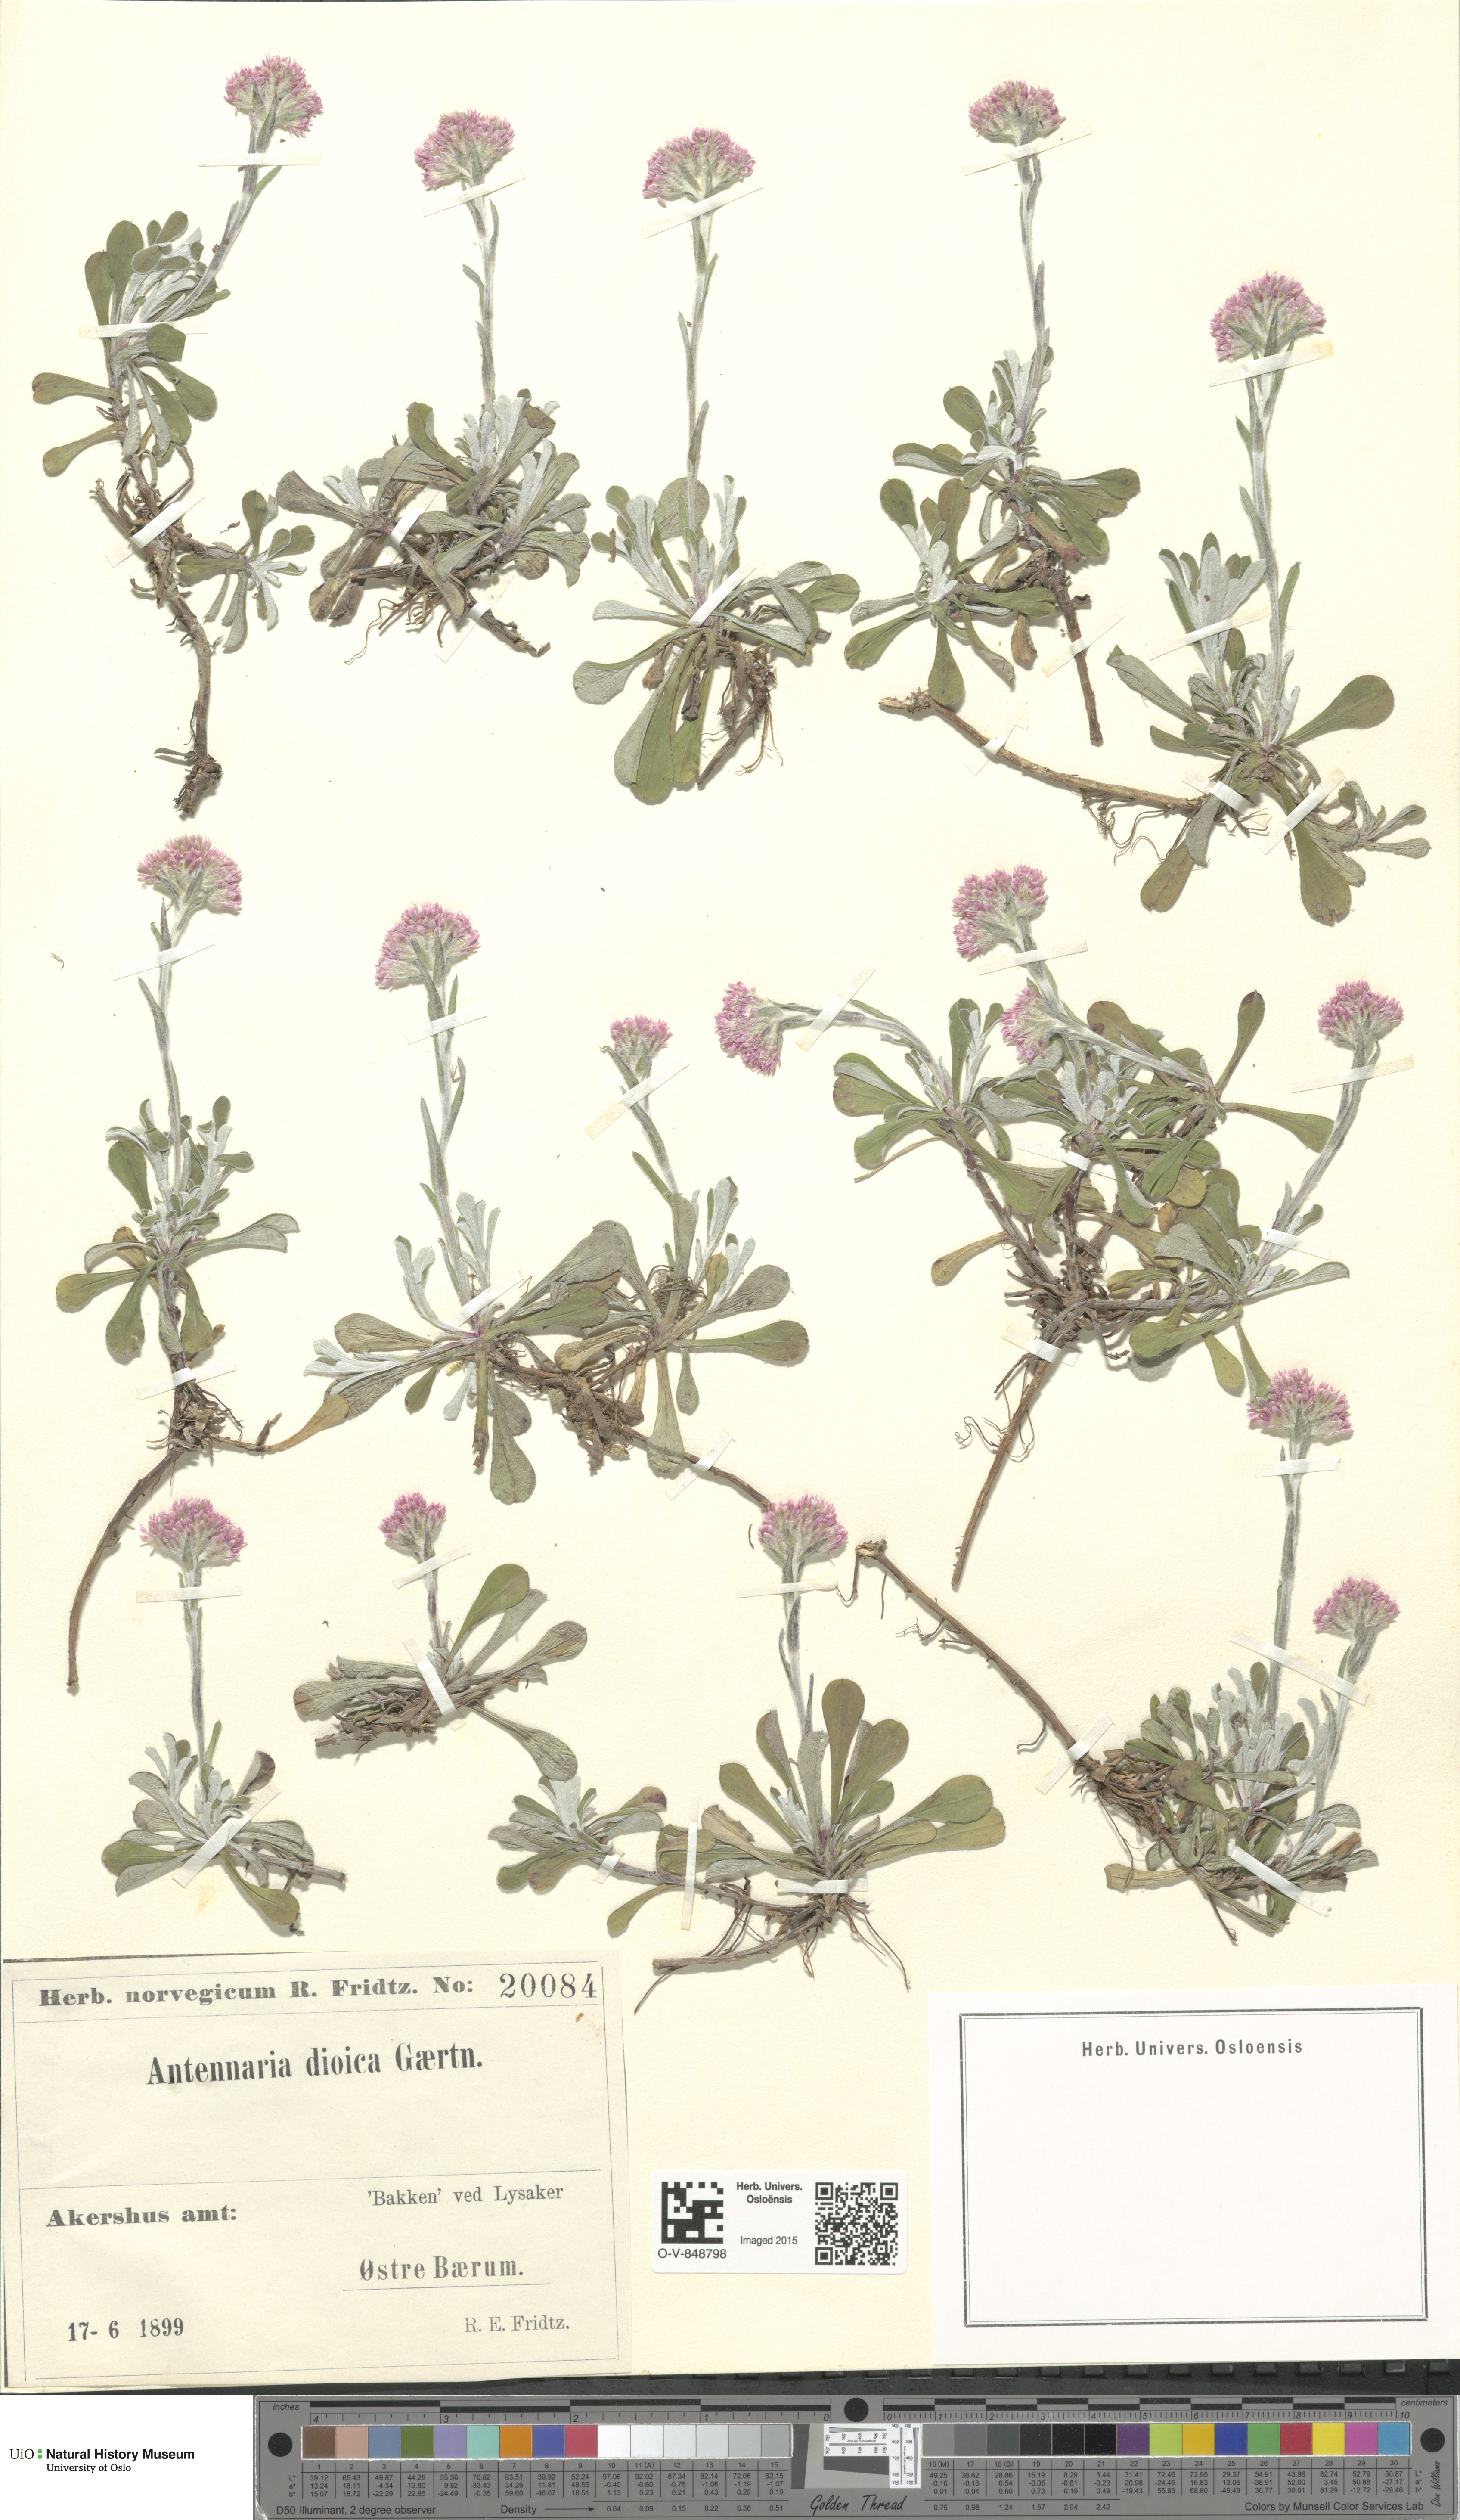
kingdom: Plantae
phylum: Tracheophyta
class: Magnoliopsida
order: Asterales
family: Asteraceae
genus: Antennaria
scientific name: Antennaria dioica
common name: Mountain everlasting
